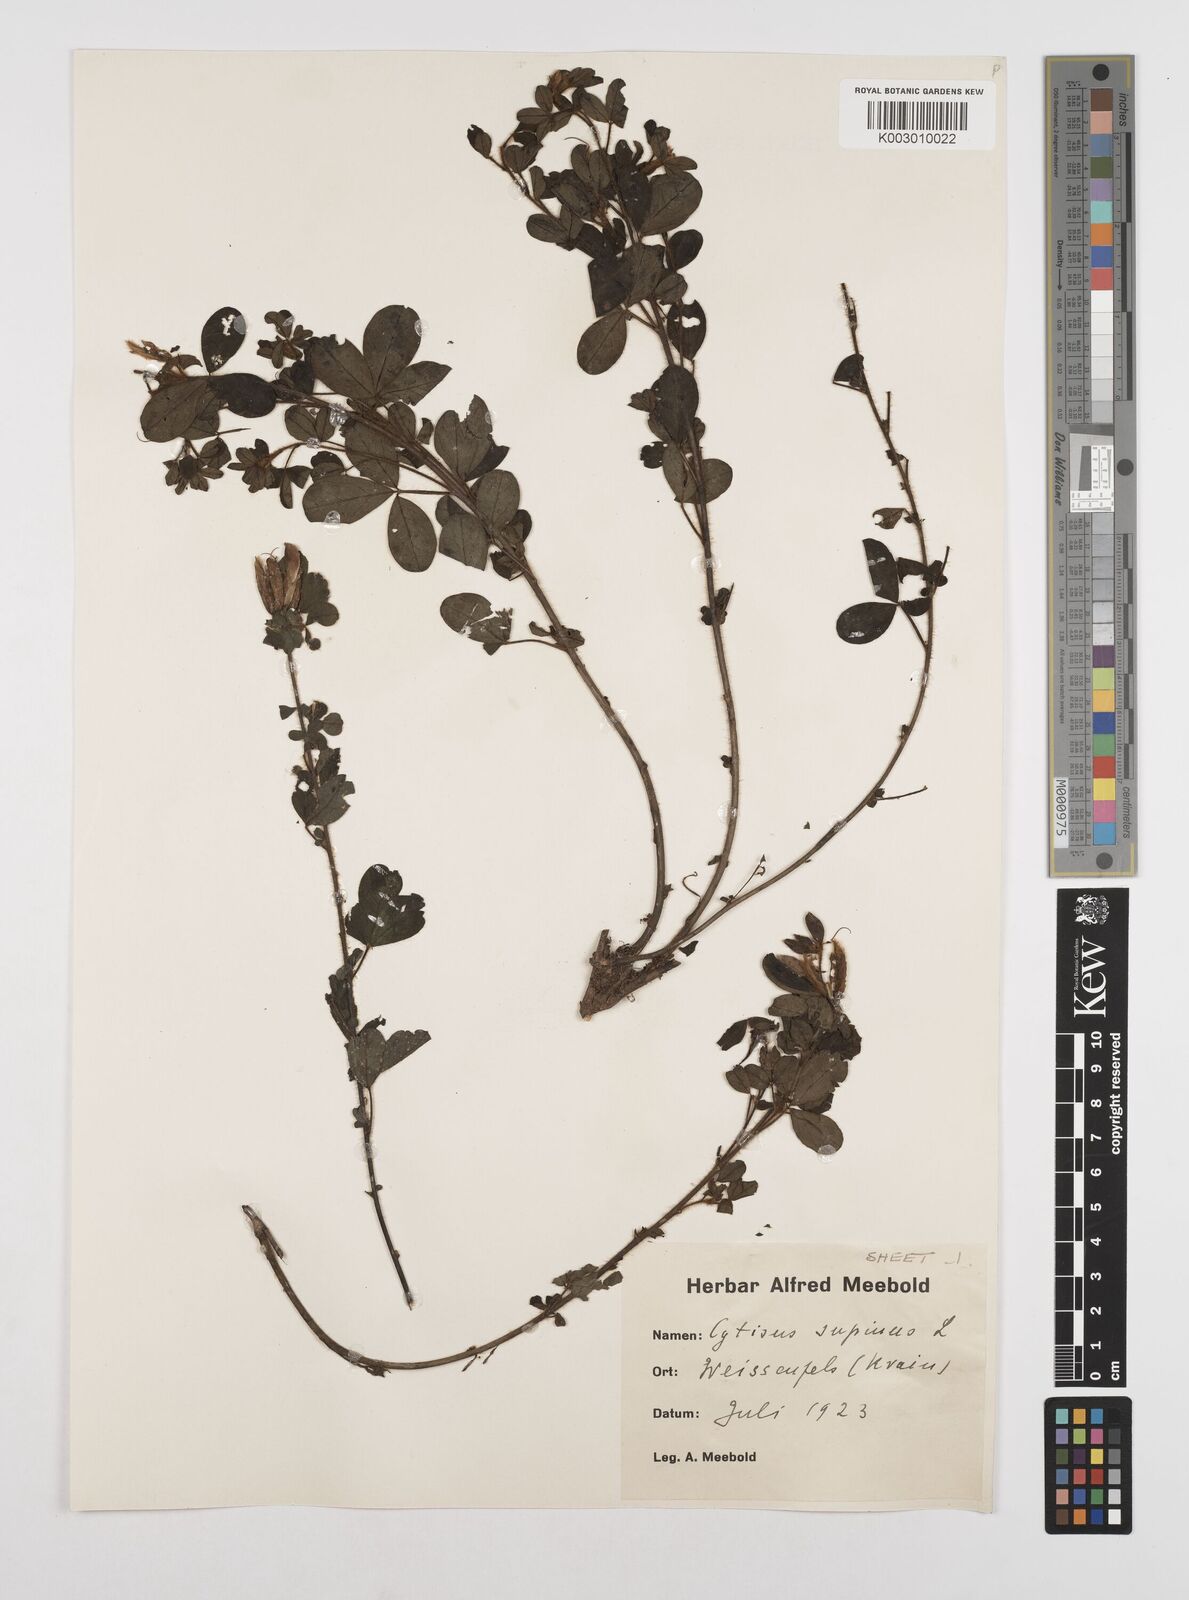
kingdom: Plantae
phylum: Tracheophyta
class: Magnoliopsida
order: Fabales
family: Fabaceae
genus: Chamaecytisus
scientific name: Chamaecytisus hirsutus
